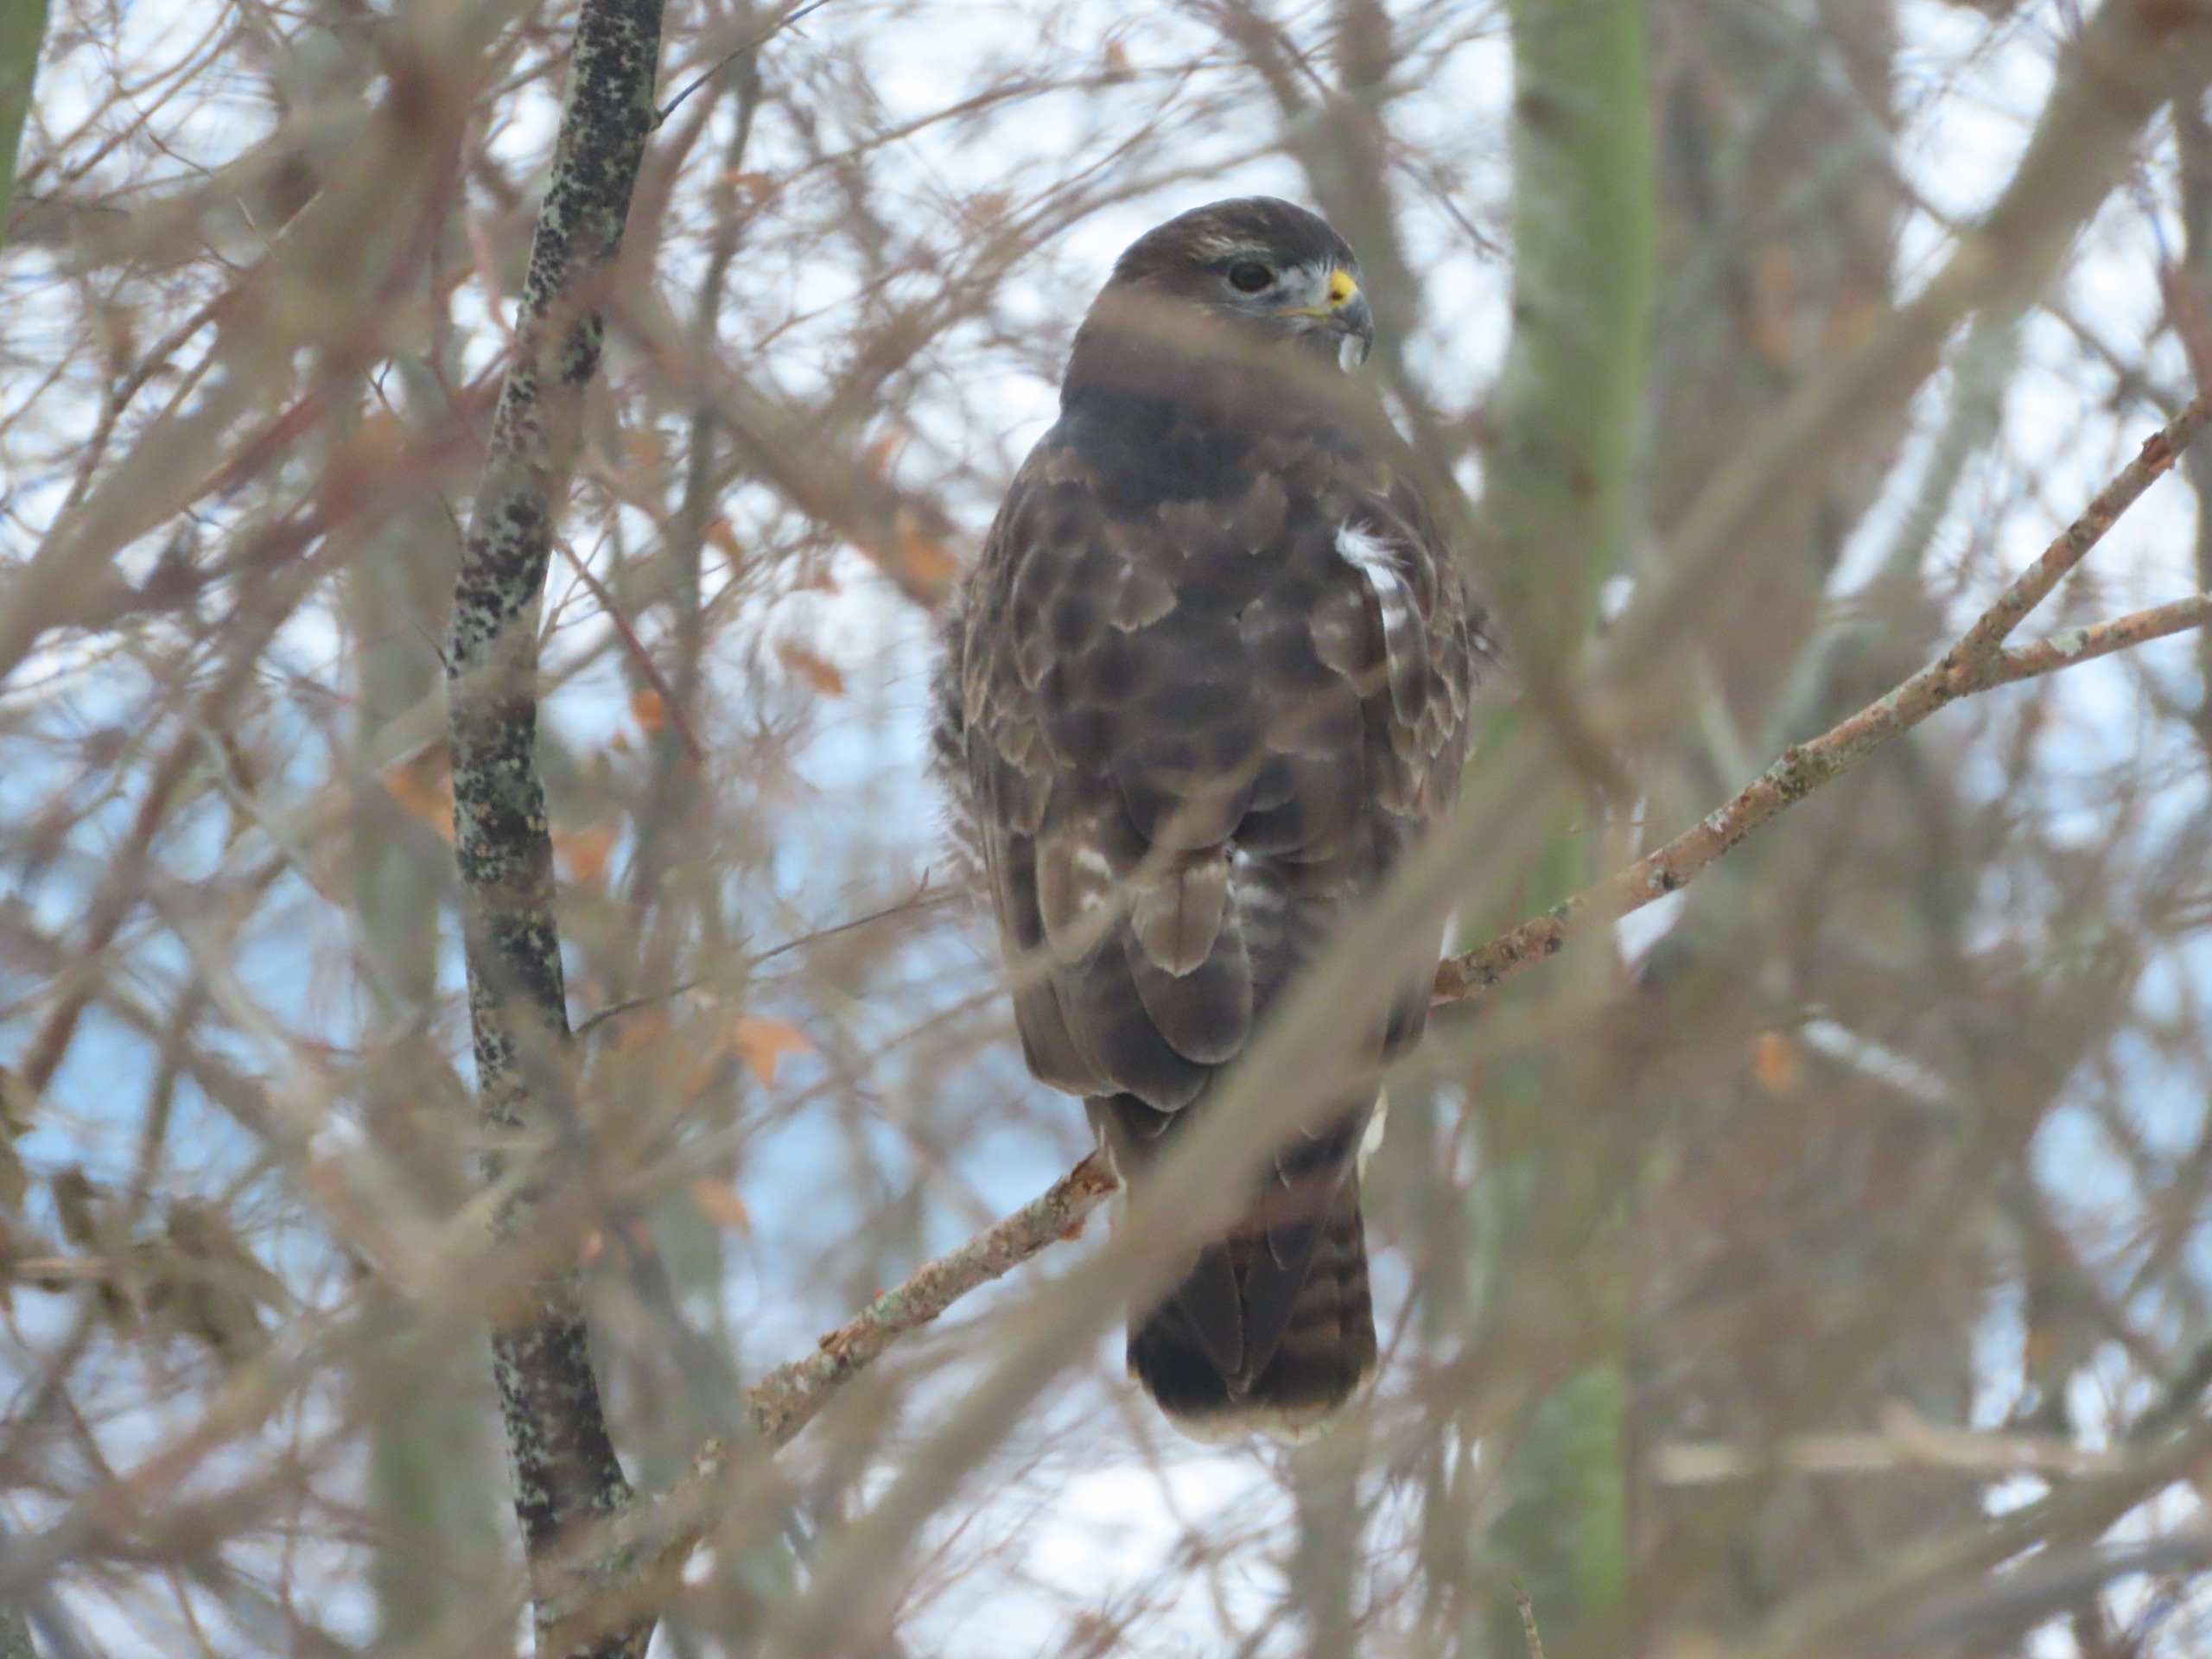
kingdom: Animalia
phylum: Chordata
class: Aves
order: Accipitriformes
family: Accipitridae
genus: Buteo
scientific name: Buteo buteo
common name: Musvåge
